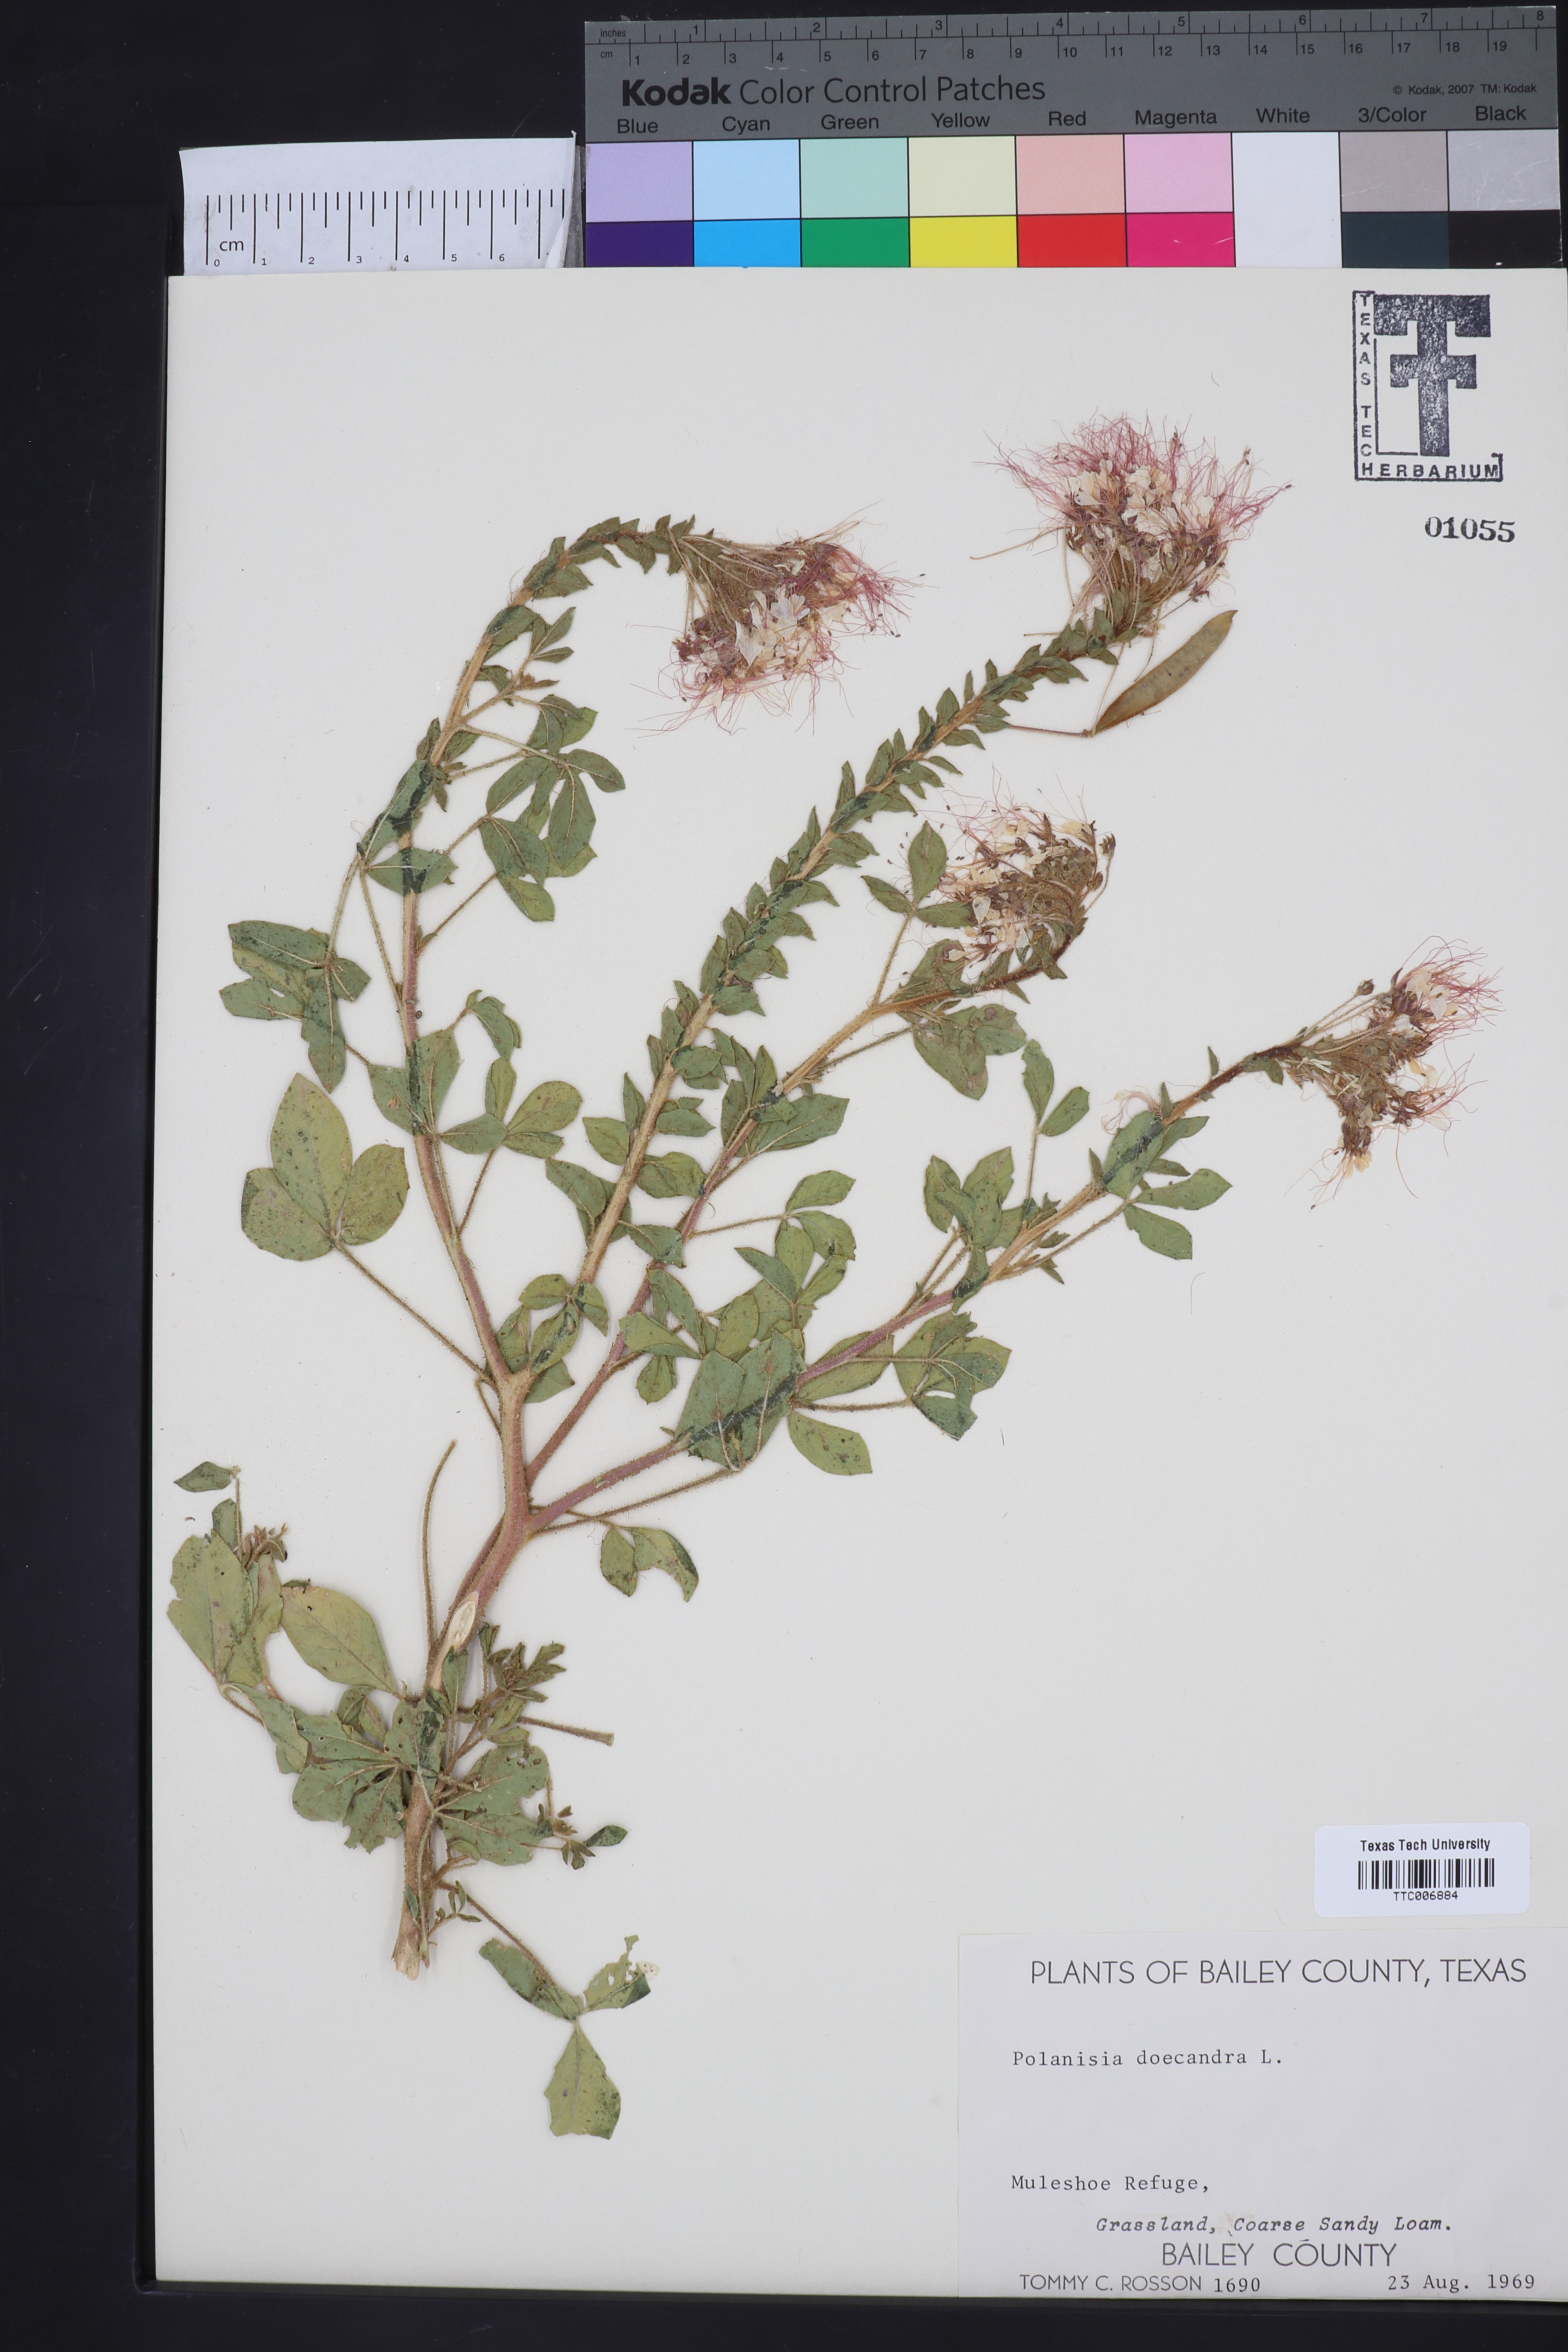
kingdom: Plantae
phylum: Tracheophyta
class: Magnoliopsida
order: Brassicales
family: Cleomaceae
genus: Polanisia
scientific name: Polanisia dodecandra
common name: Clammyweed
